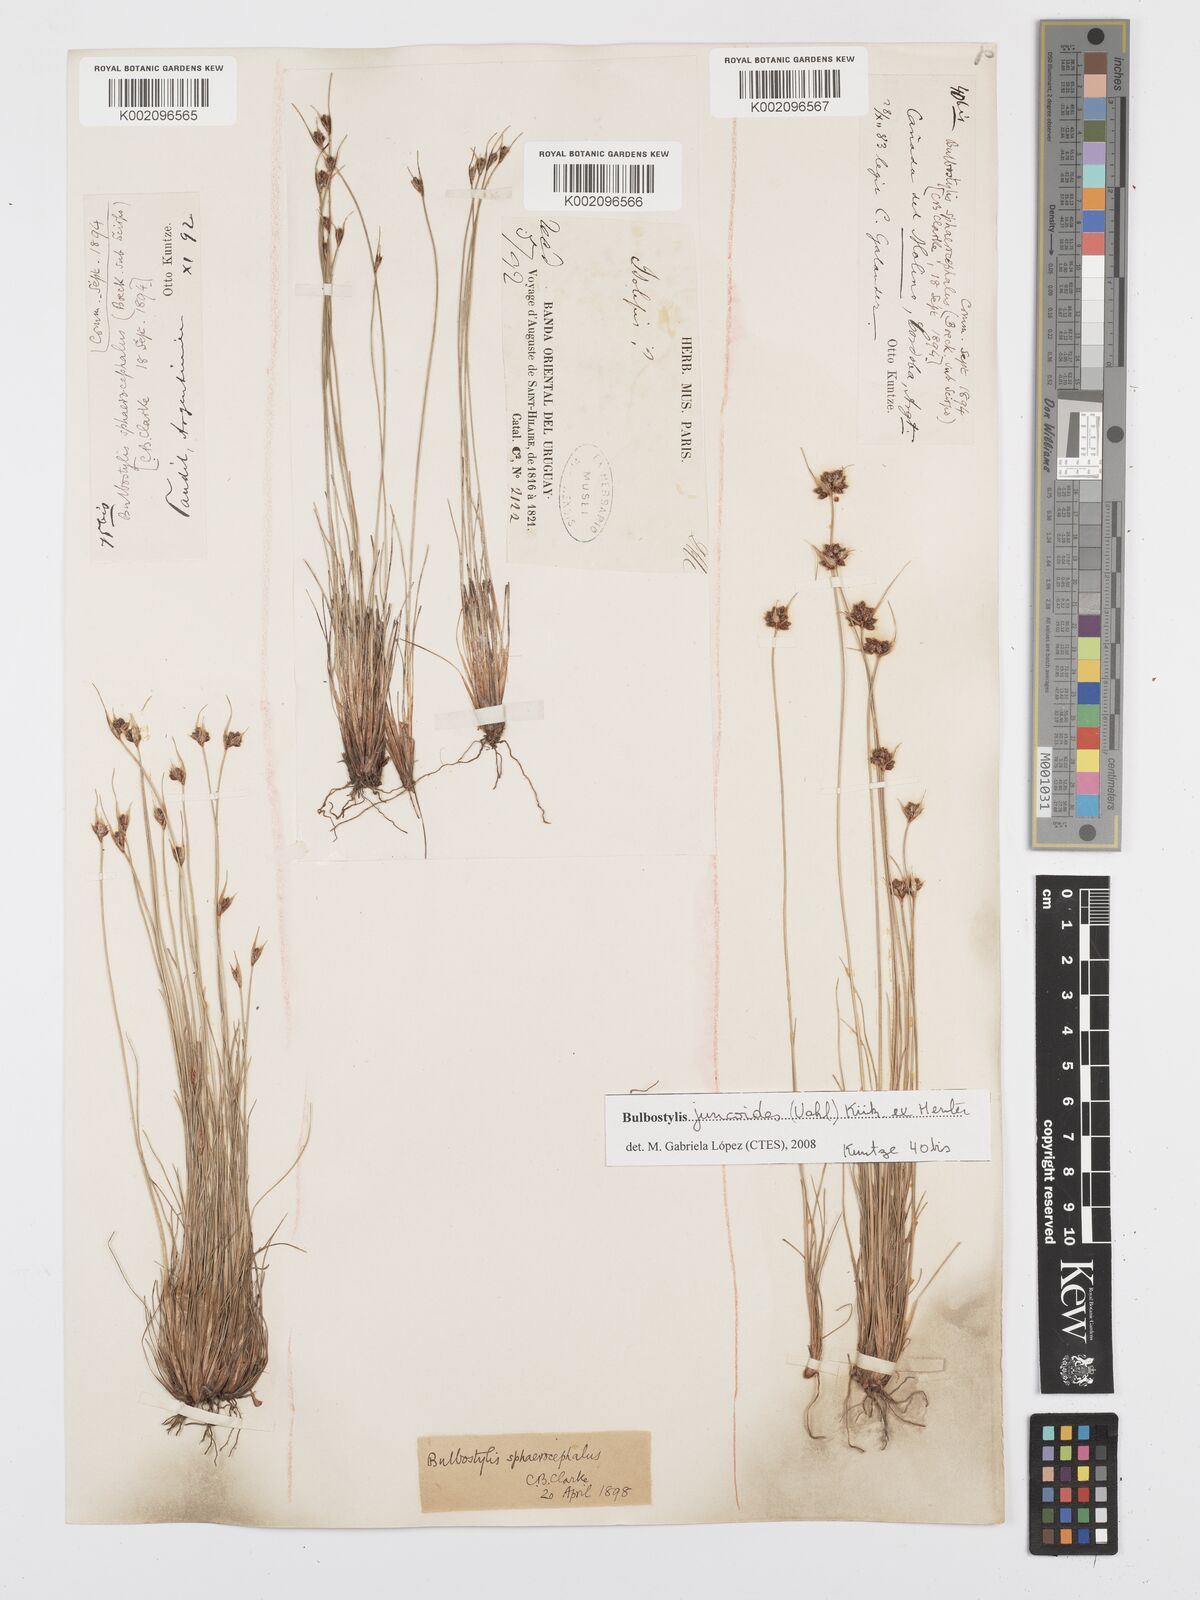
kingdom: Plantae
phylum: Tracheophyta
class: Liliopsida
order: Poales
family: Cyperaceae
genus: Bulbostylis
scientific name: Bulbostylis juncoides
